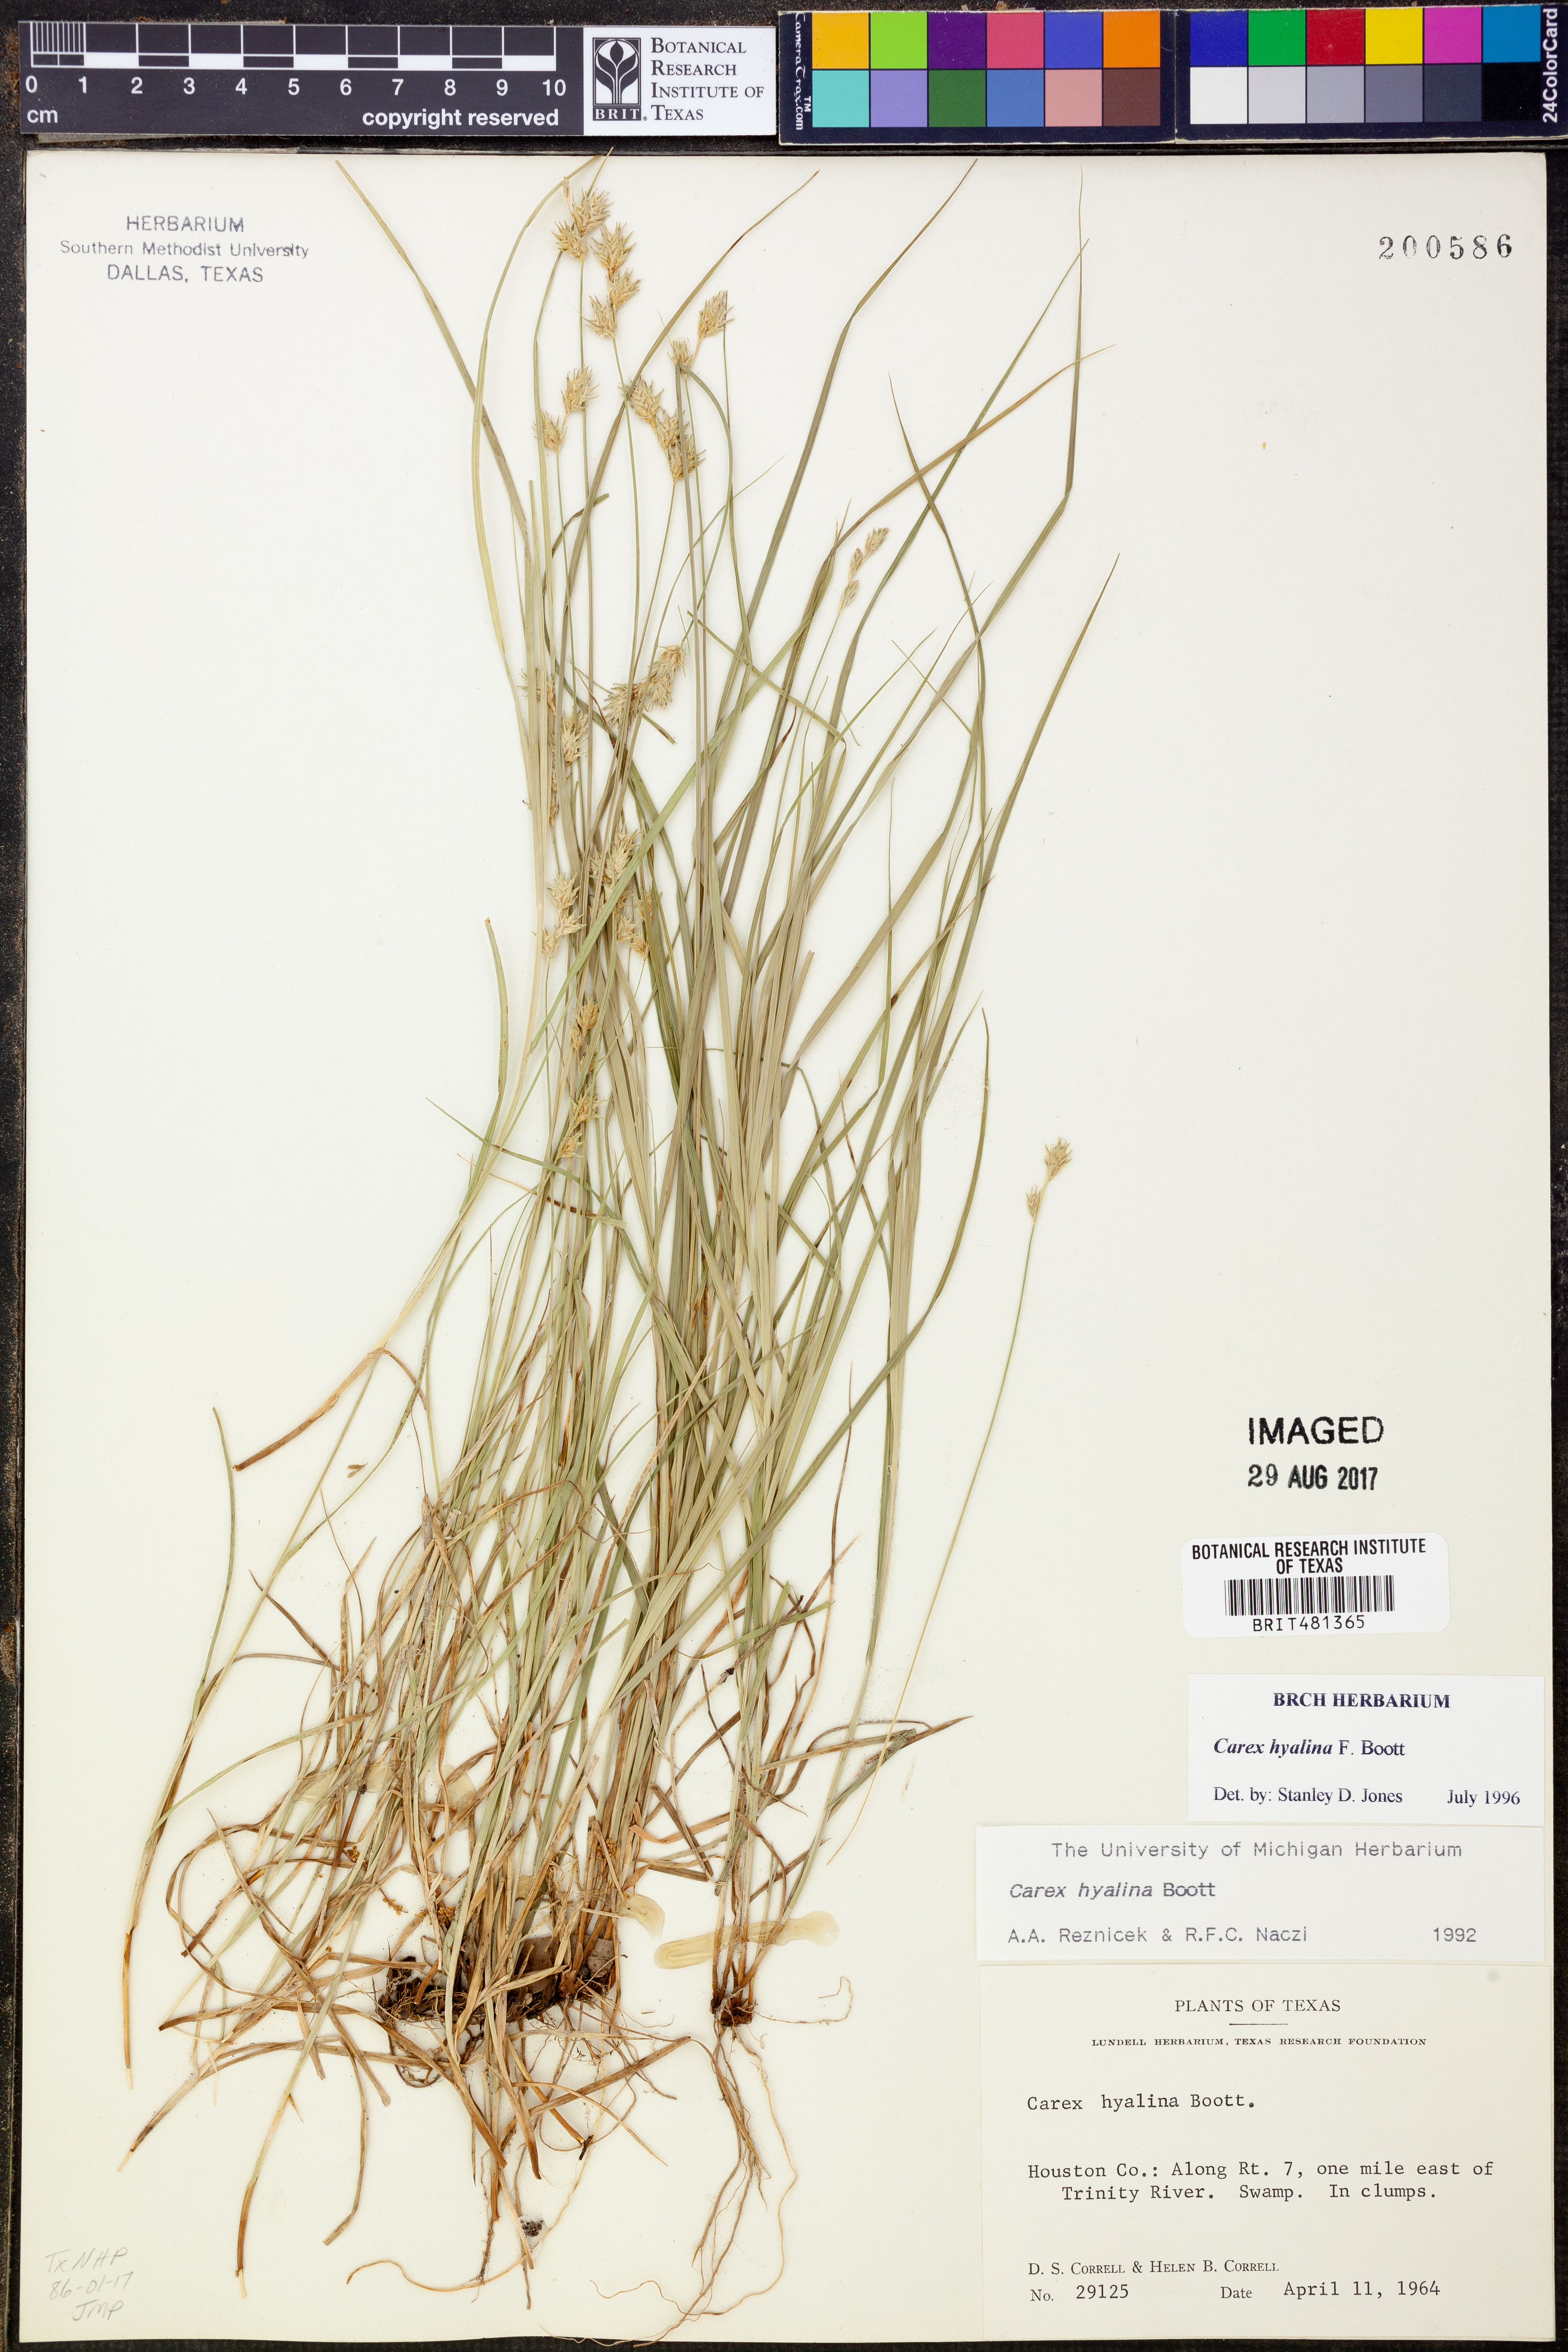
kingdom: Plantae
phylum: Tracheophyta
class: Liliopsida
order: Poales
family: Cyperaceae
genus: Carex
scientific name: Carex hyalina
